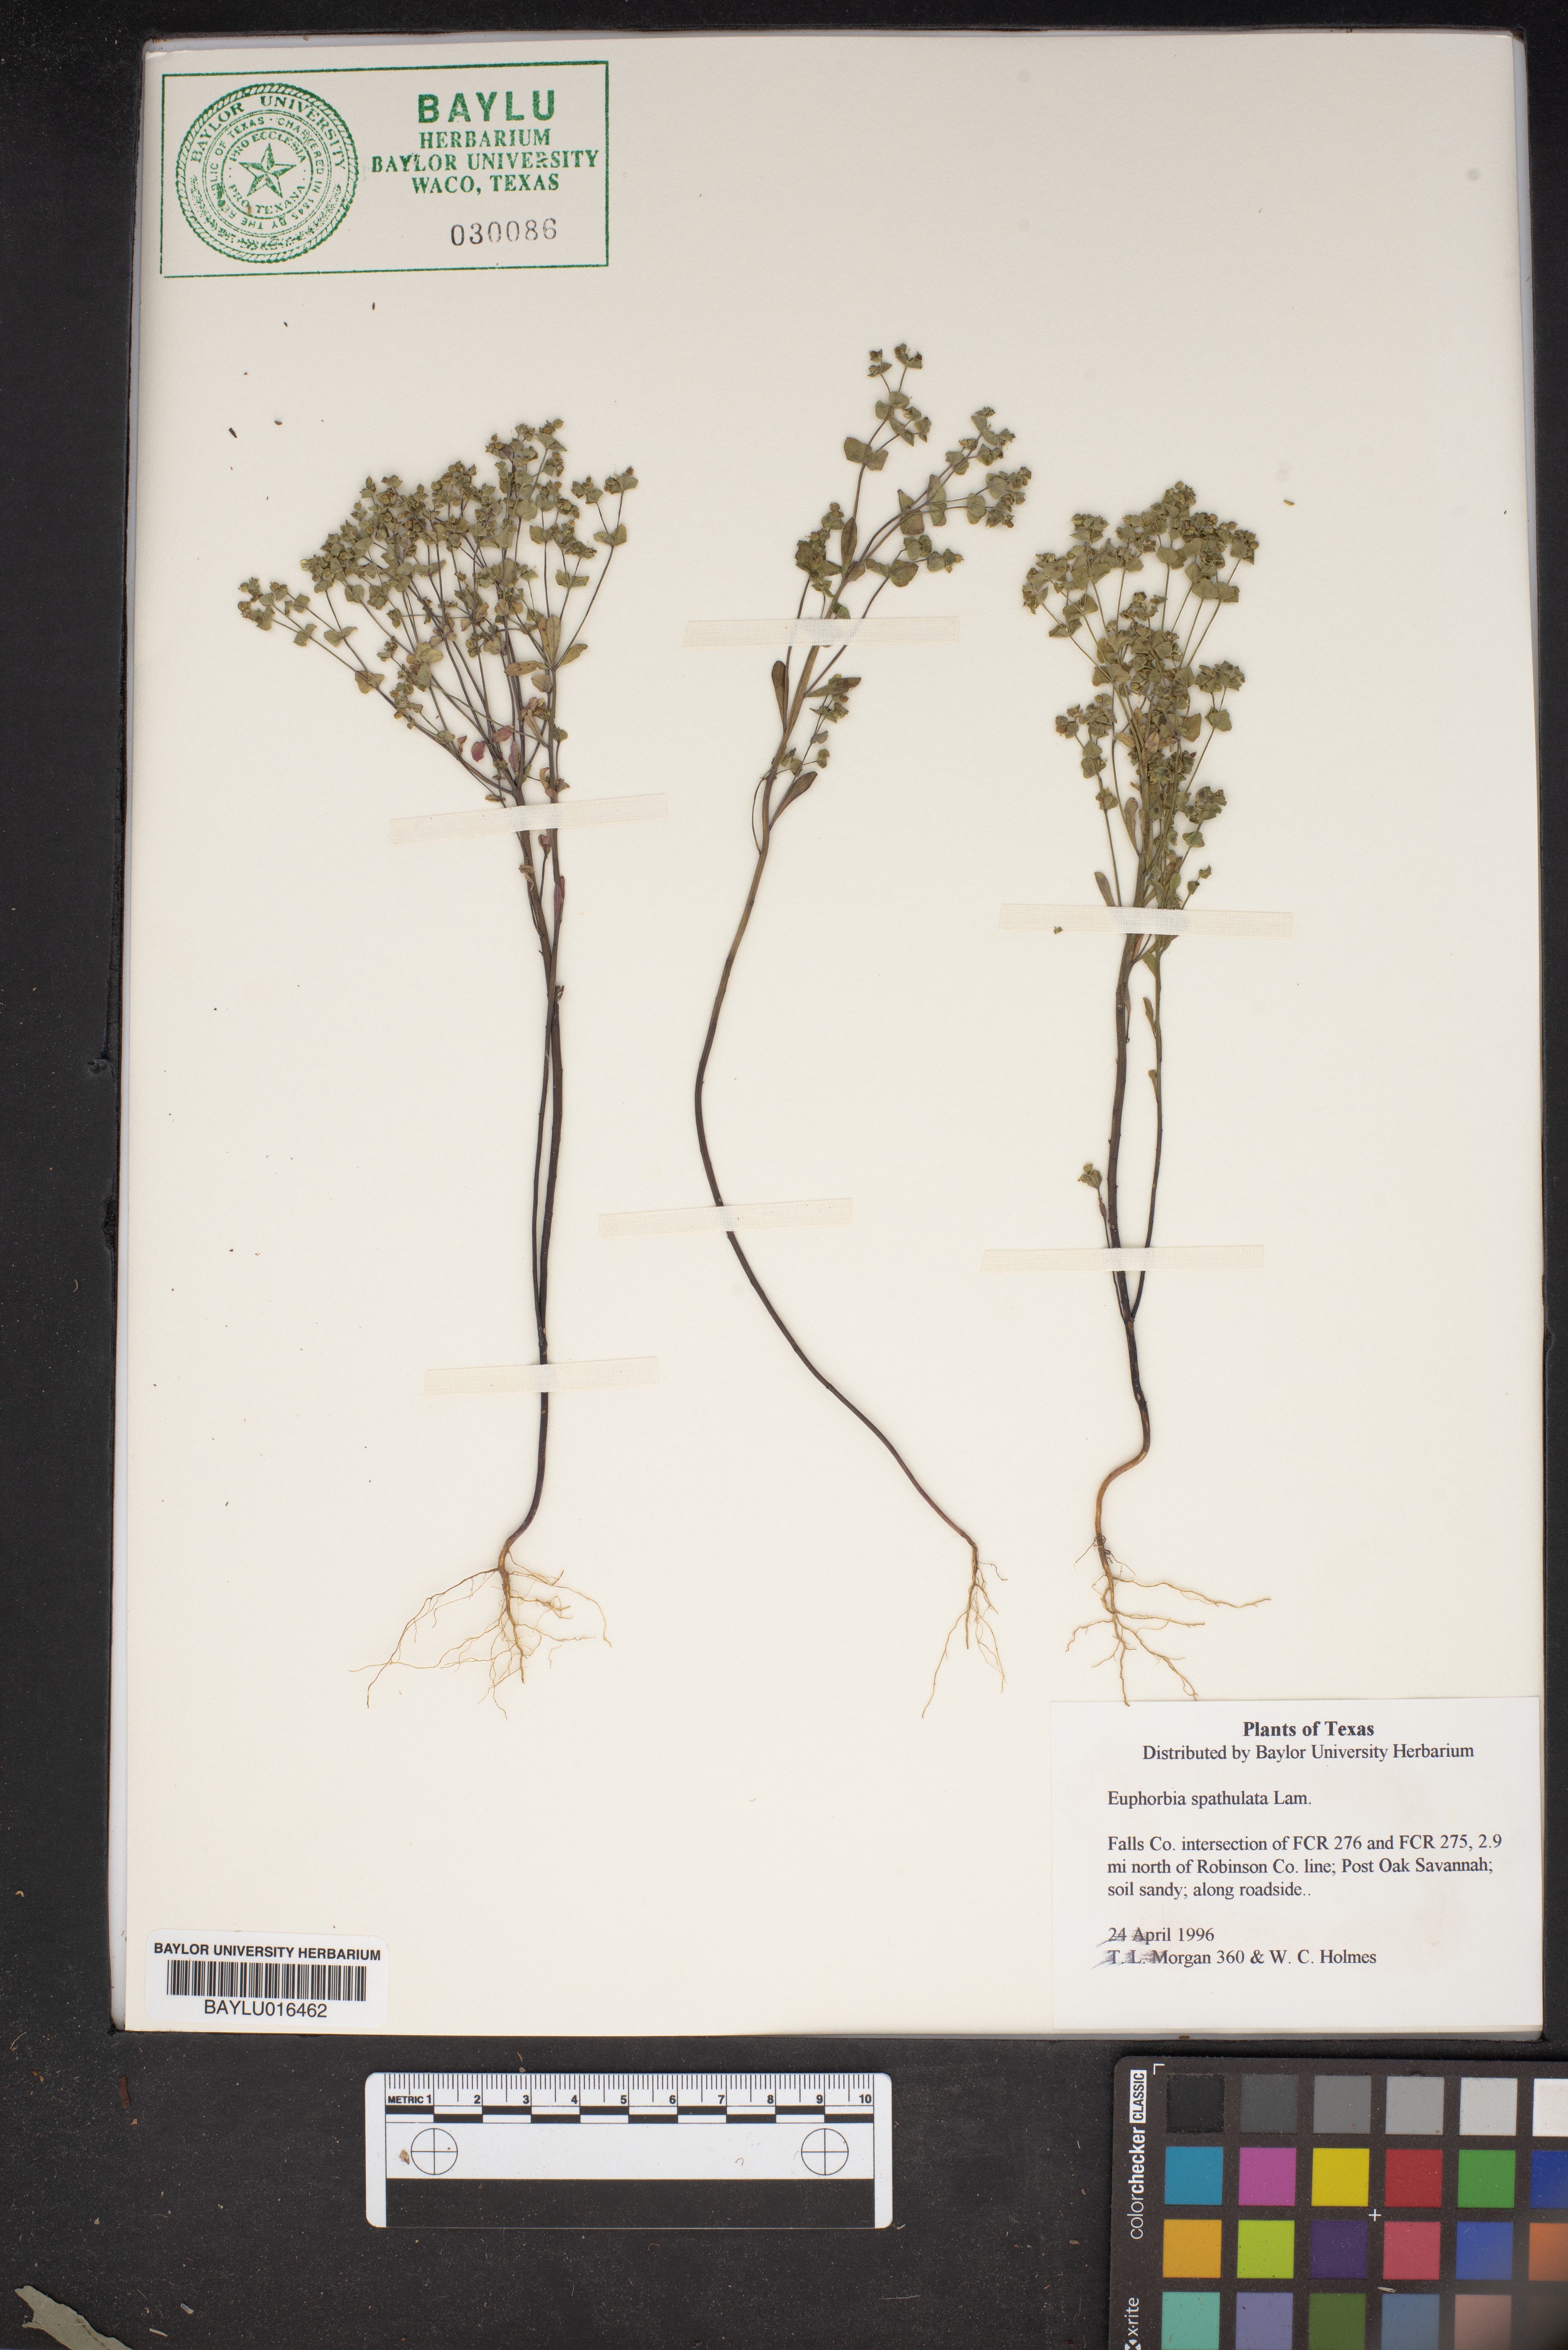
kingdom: Plantae
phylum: Tracheophyta
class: Magnoliopsida
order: Malpighiales
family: Euphorbiaceae
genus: Euphorbia
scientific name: Euphorbia spathulata
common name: Blunt spurge
